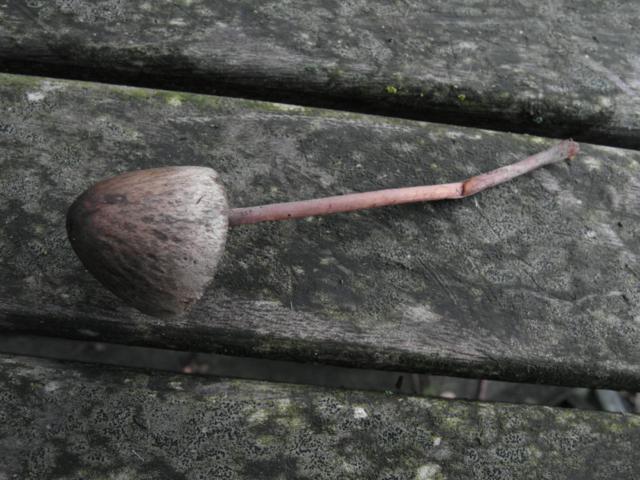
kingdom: Fungi
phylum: Basidiomycota
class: Agaricomycetes
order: Agaricales
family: Bolbitiaceae
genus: Panaeolus
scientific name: Panaeolus acuminatus
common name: høj glanshat
